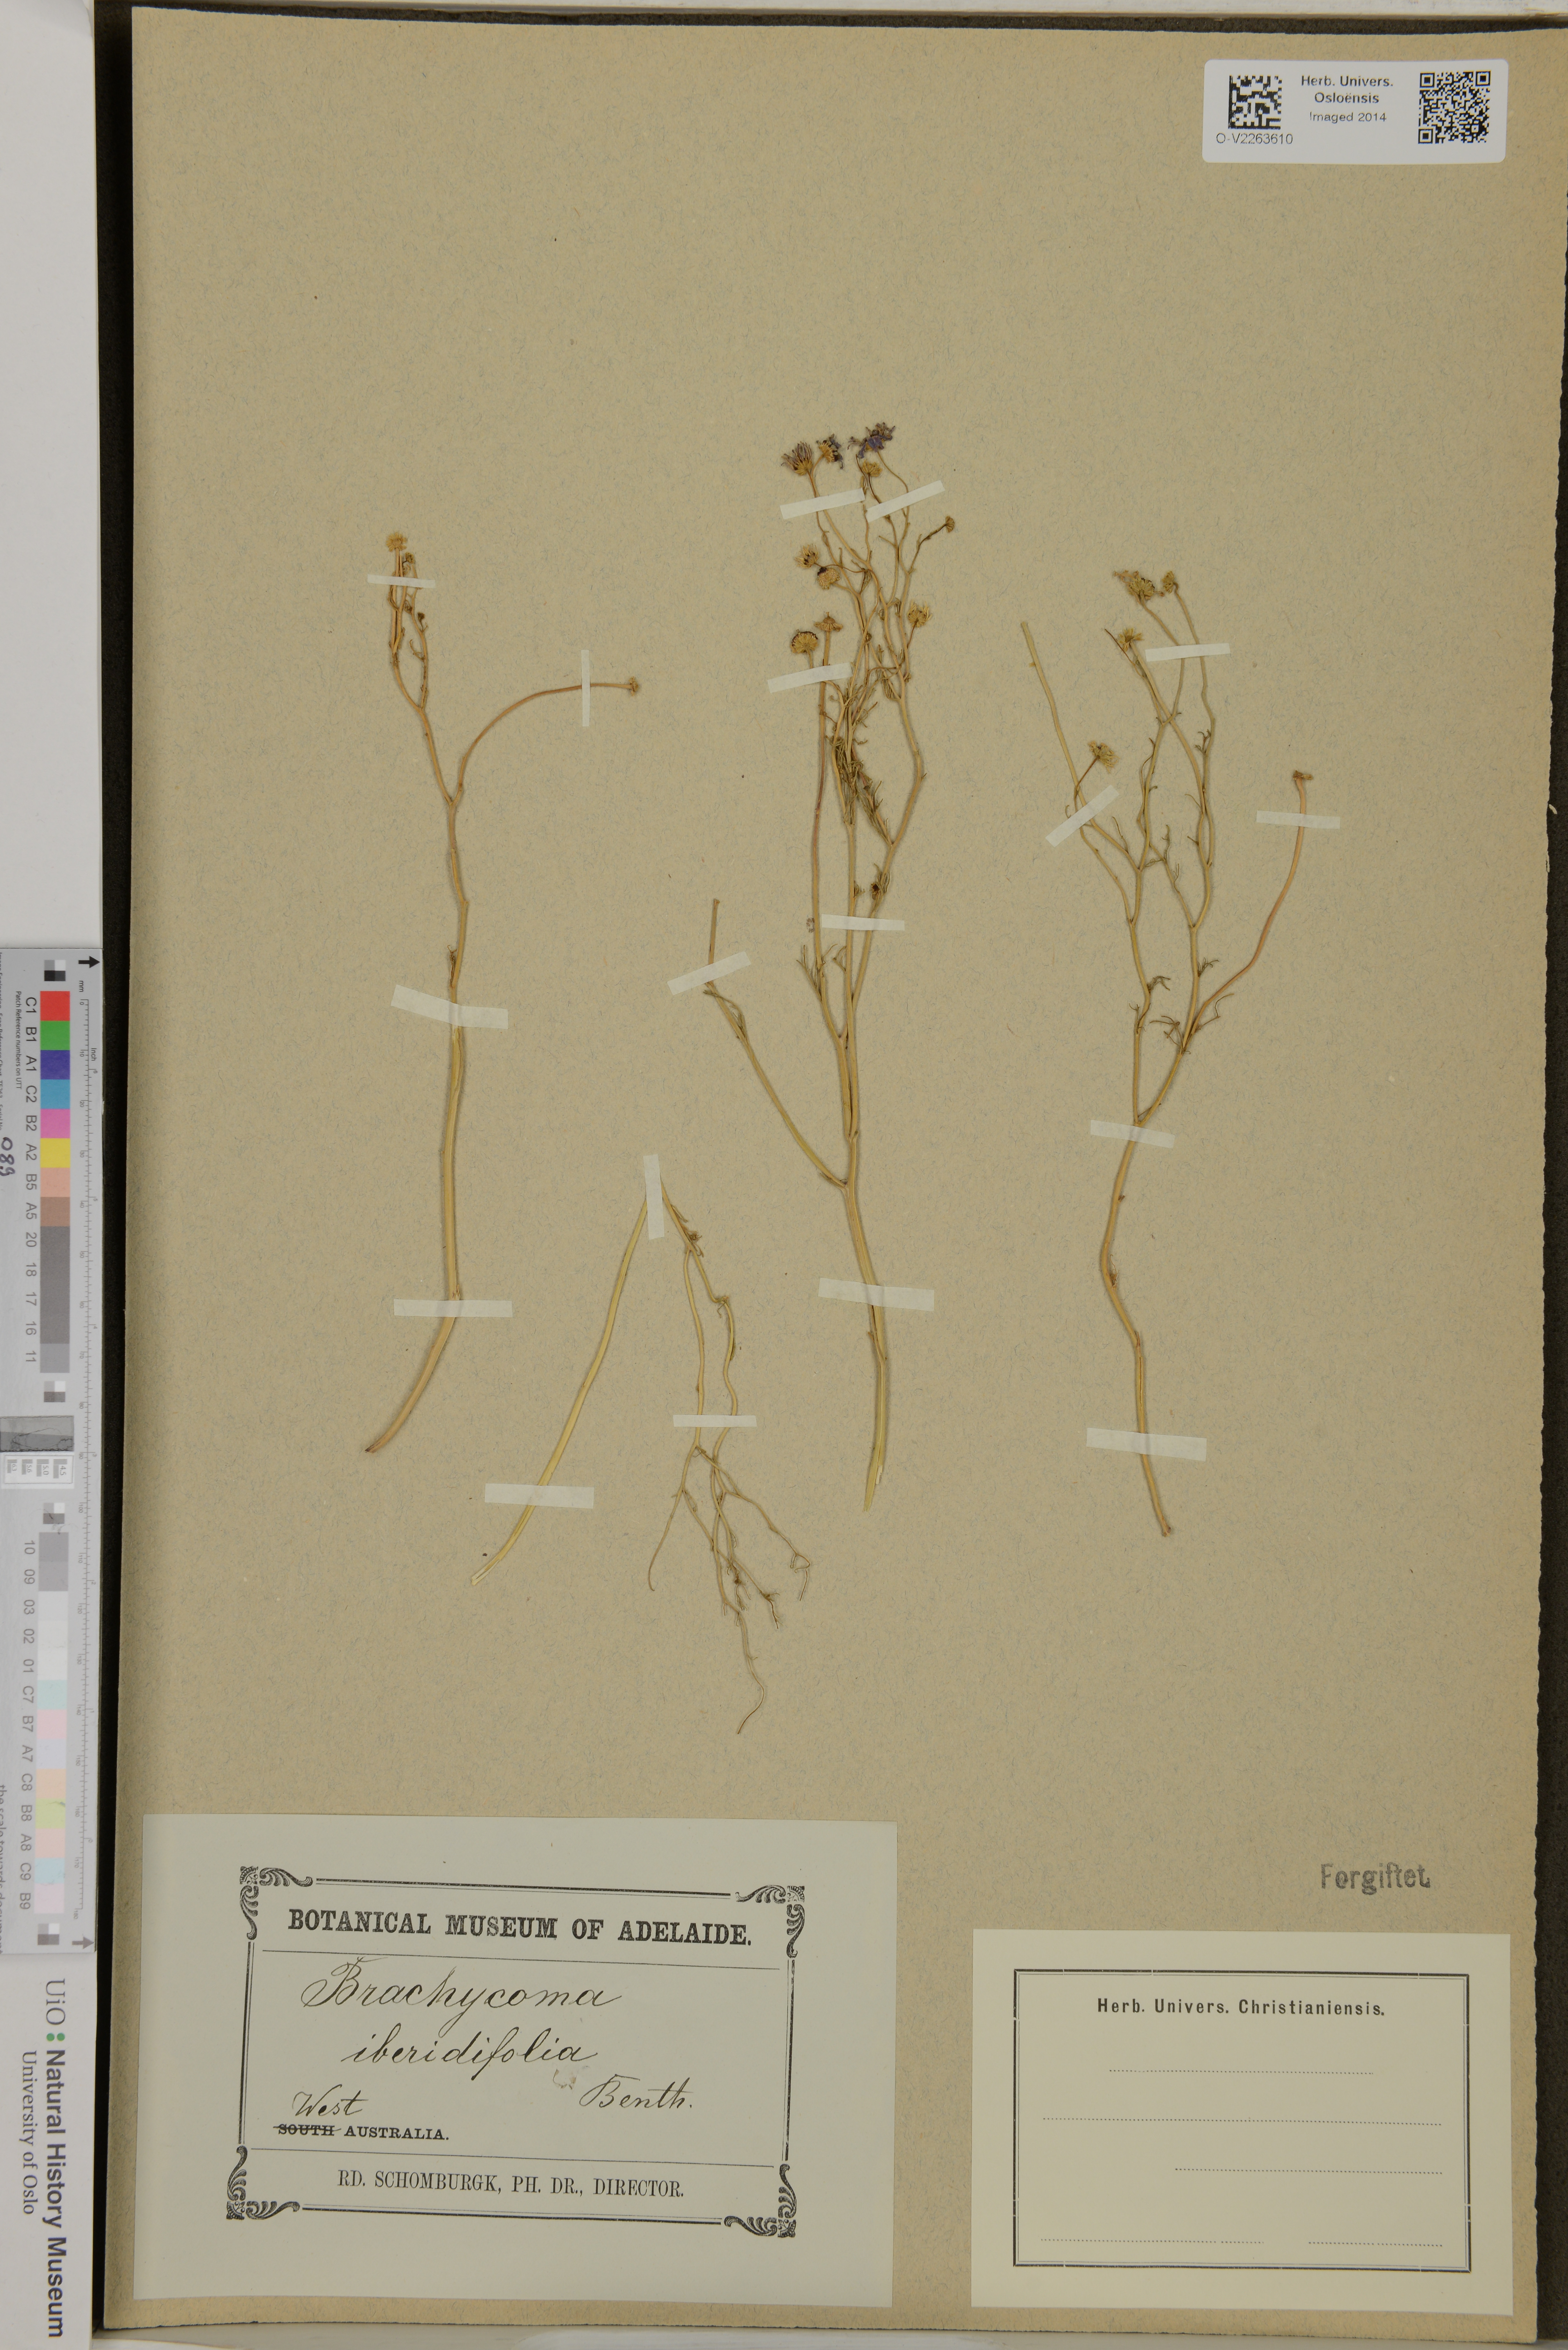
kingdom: Plantae
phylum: Tracheophyta
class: Magnoliopsida
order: Asterales
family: Asteraceae
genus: Brachyscome
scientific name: Brachyscome iberidifolia
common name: Swan river daisy
